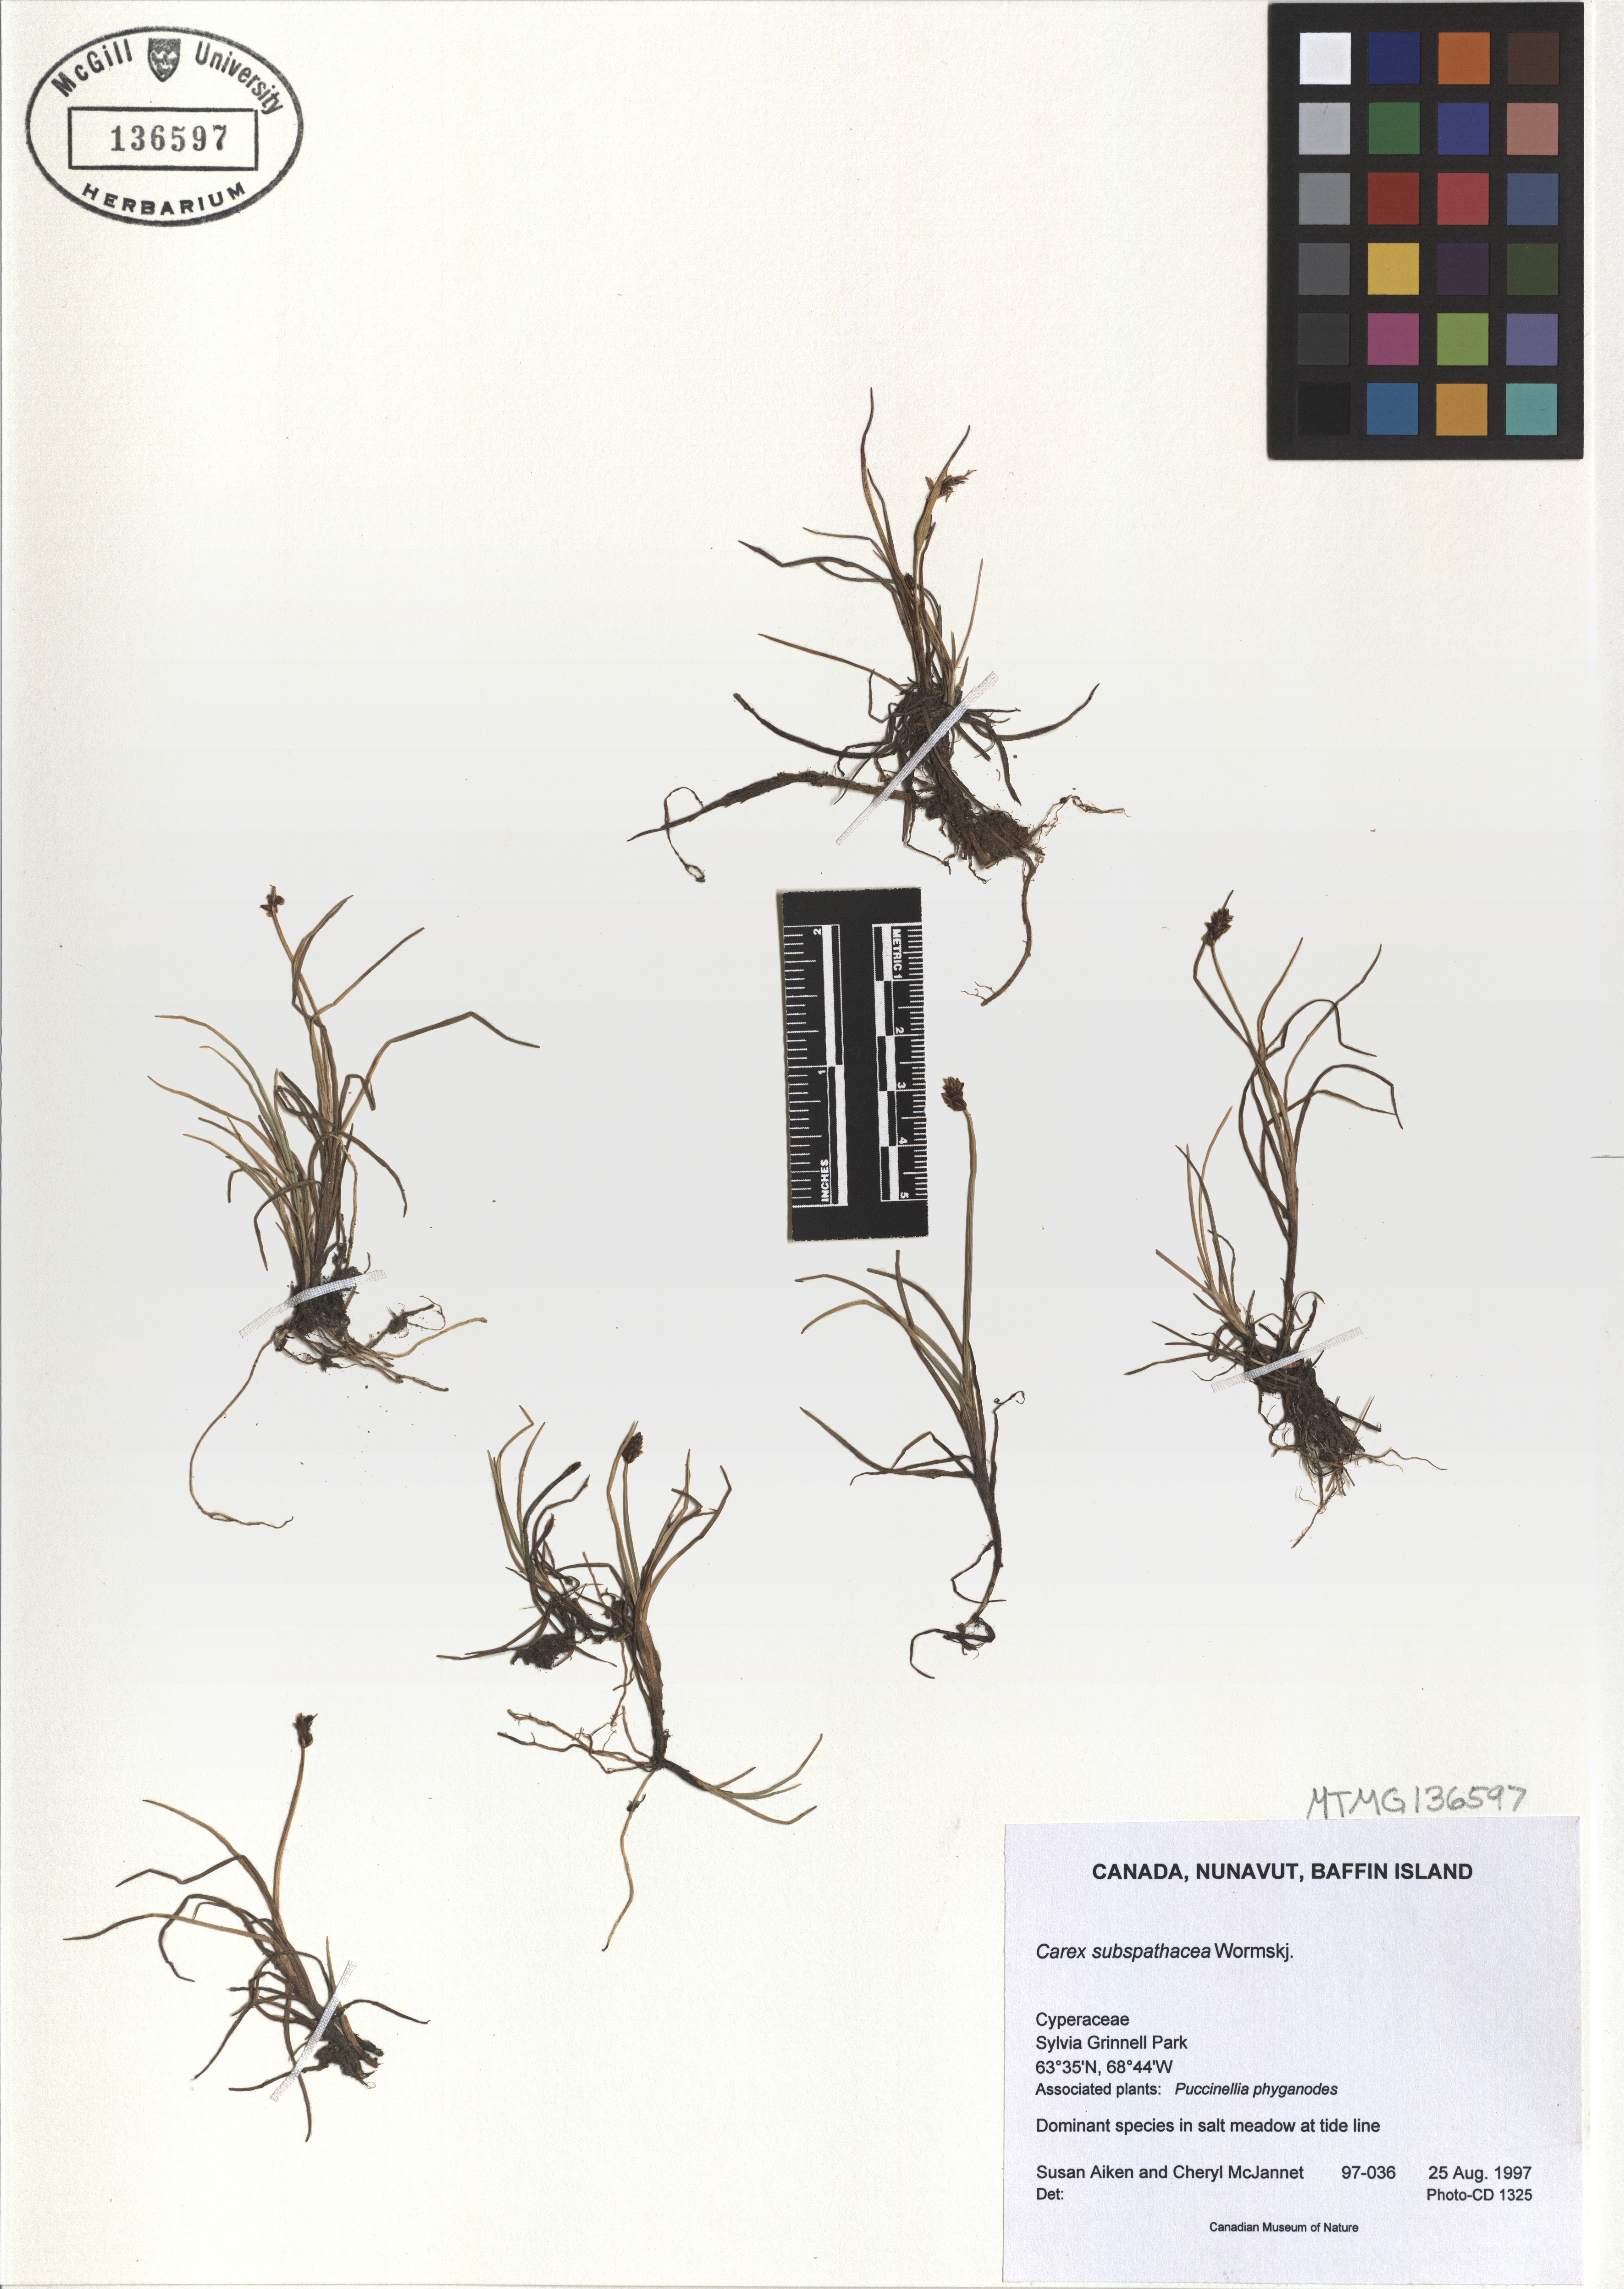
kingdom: Plantae
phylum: Tracheophyta
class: Liliopsida
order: Poales
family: Cyperaceae
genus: Carex
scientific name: Carex subspathacea
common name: Hoppner's sedge
